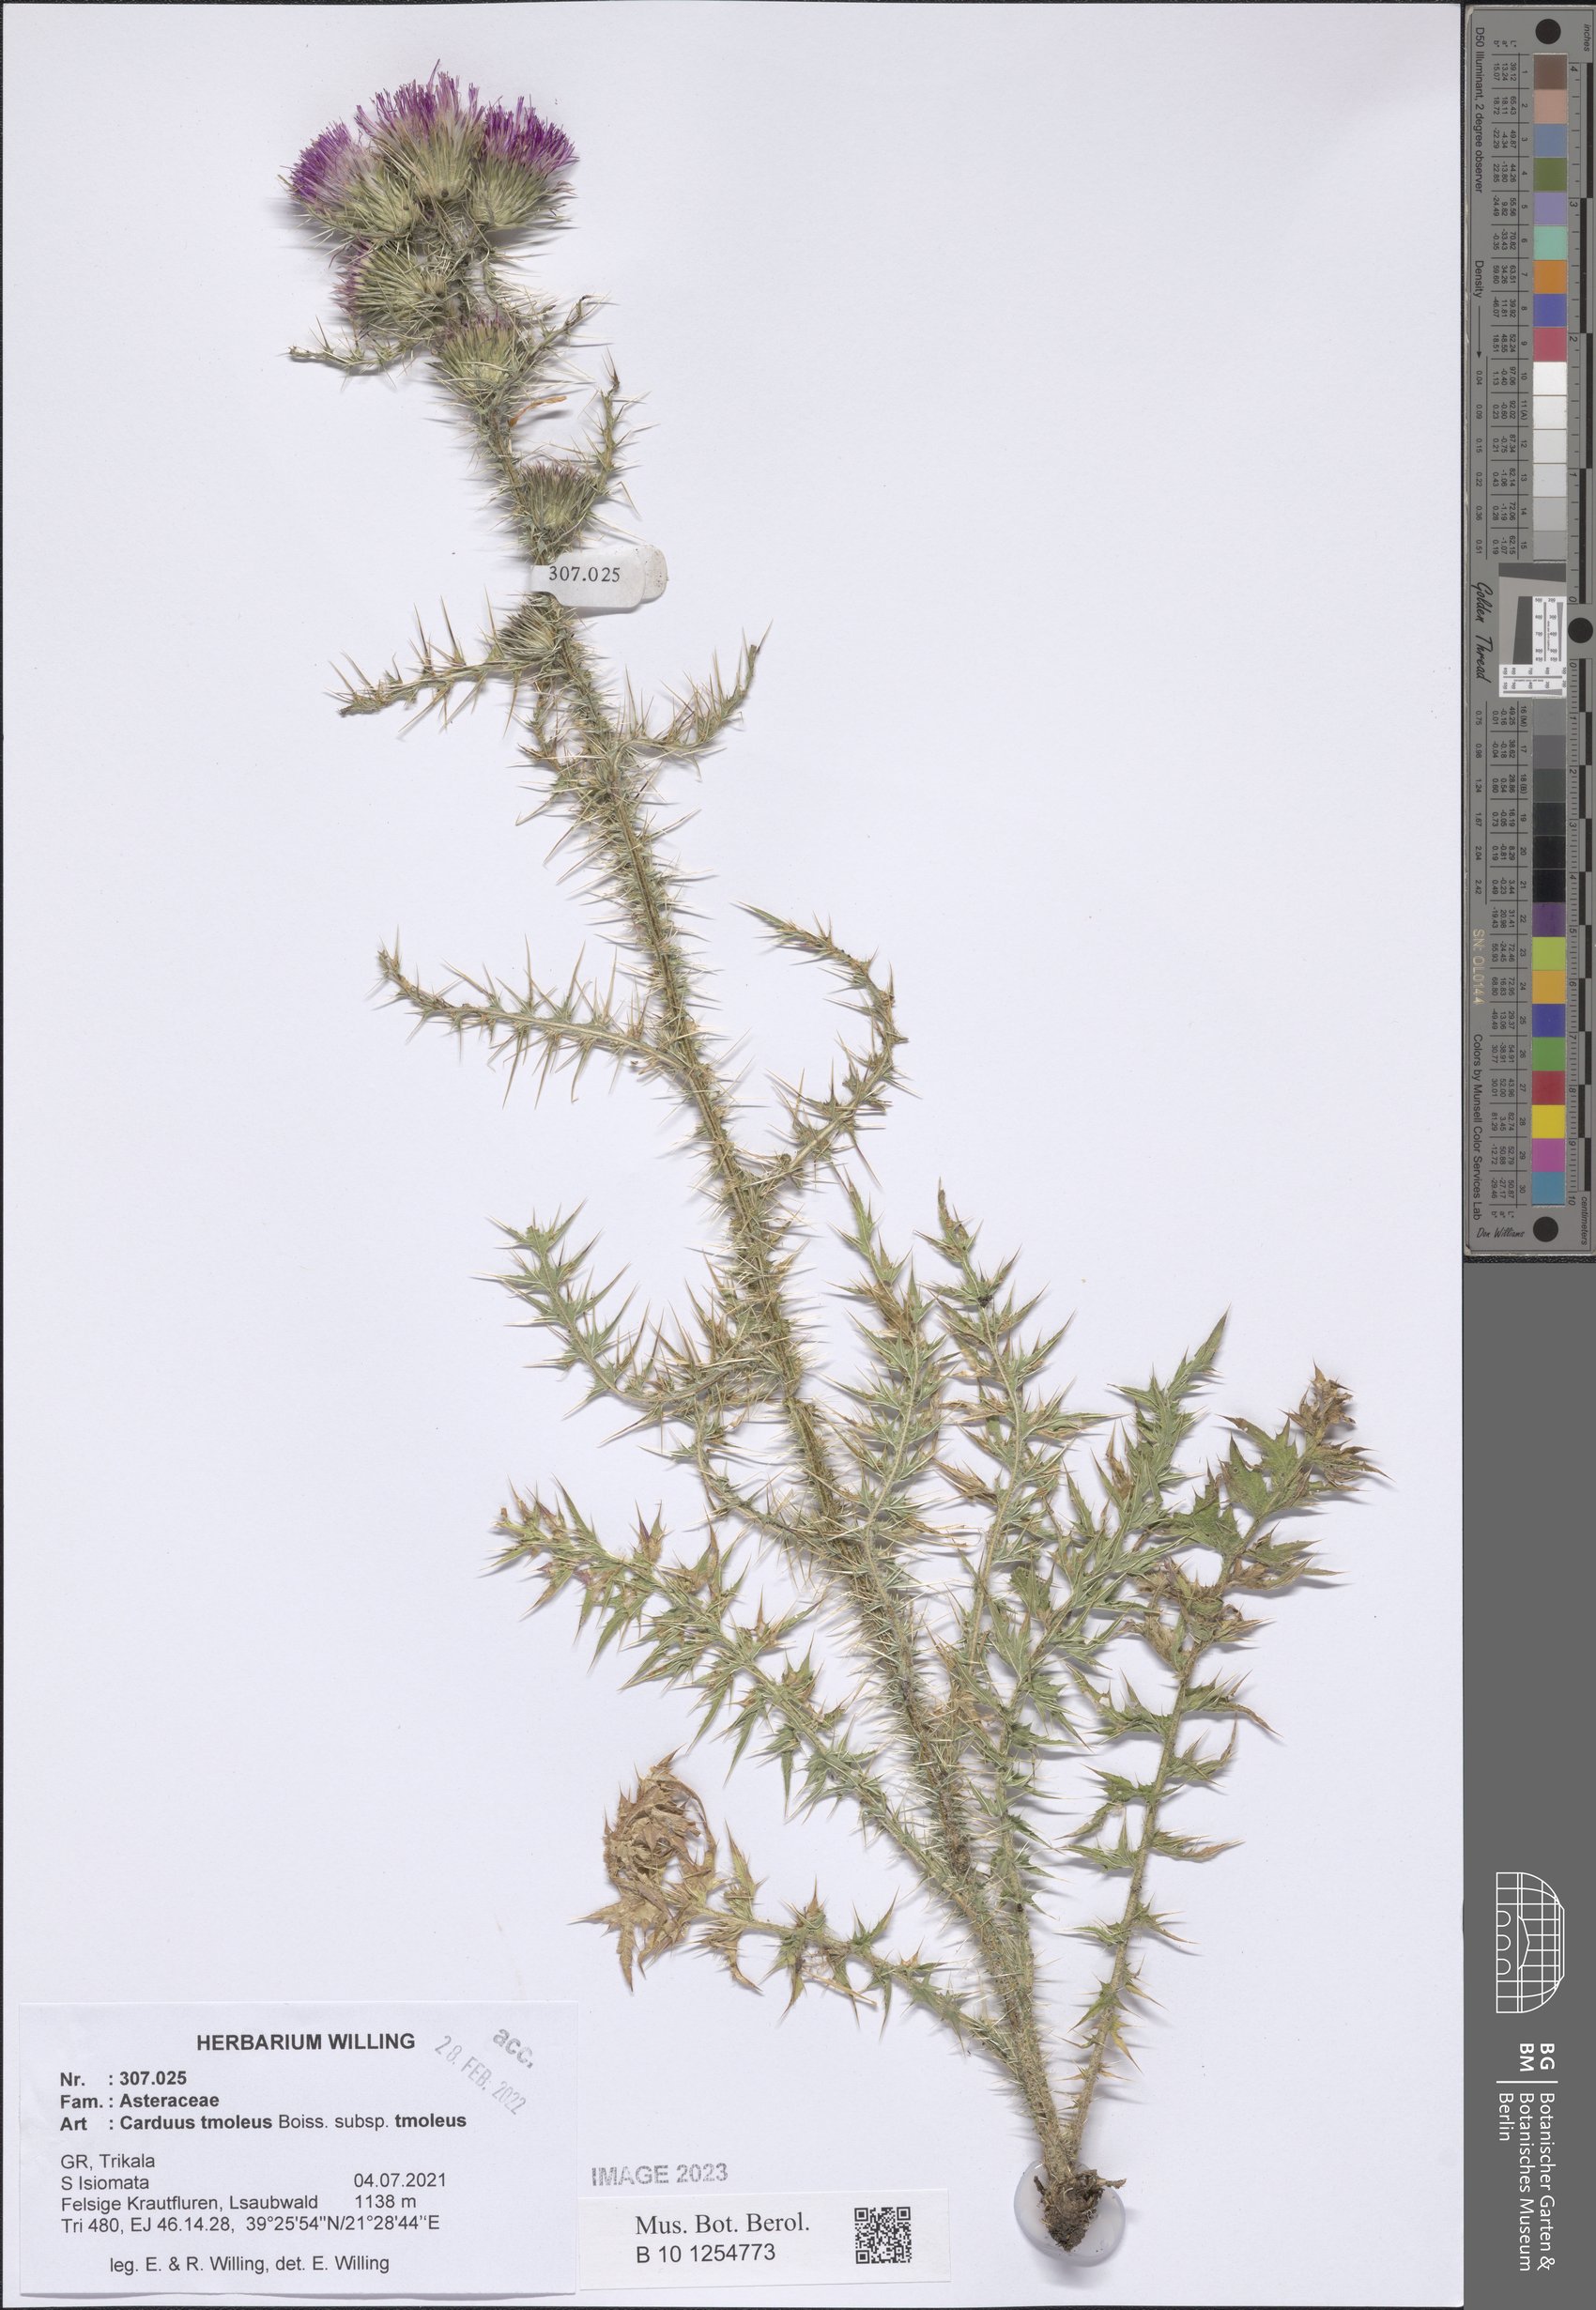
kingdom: Plantae
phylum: Tracheophyta
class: Magnoliopsida
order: Asterales
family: Asteraceae
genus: Carduus
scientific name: Carduus tmoleus
